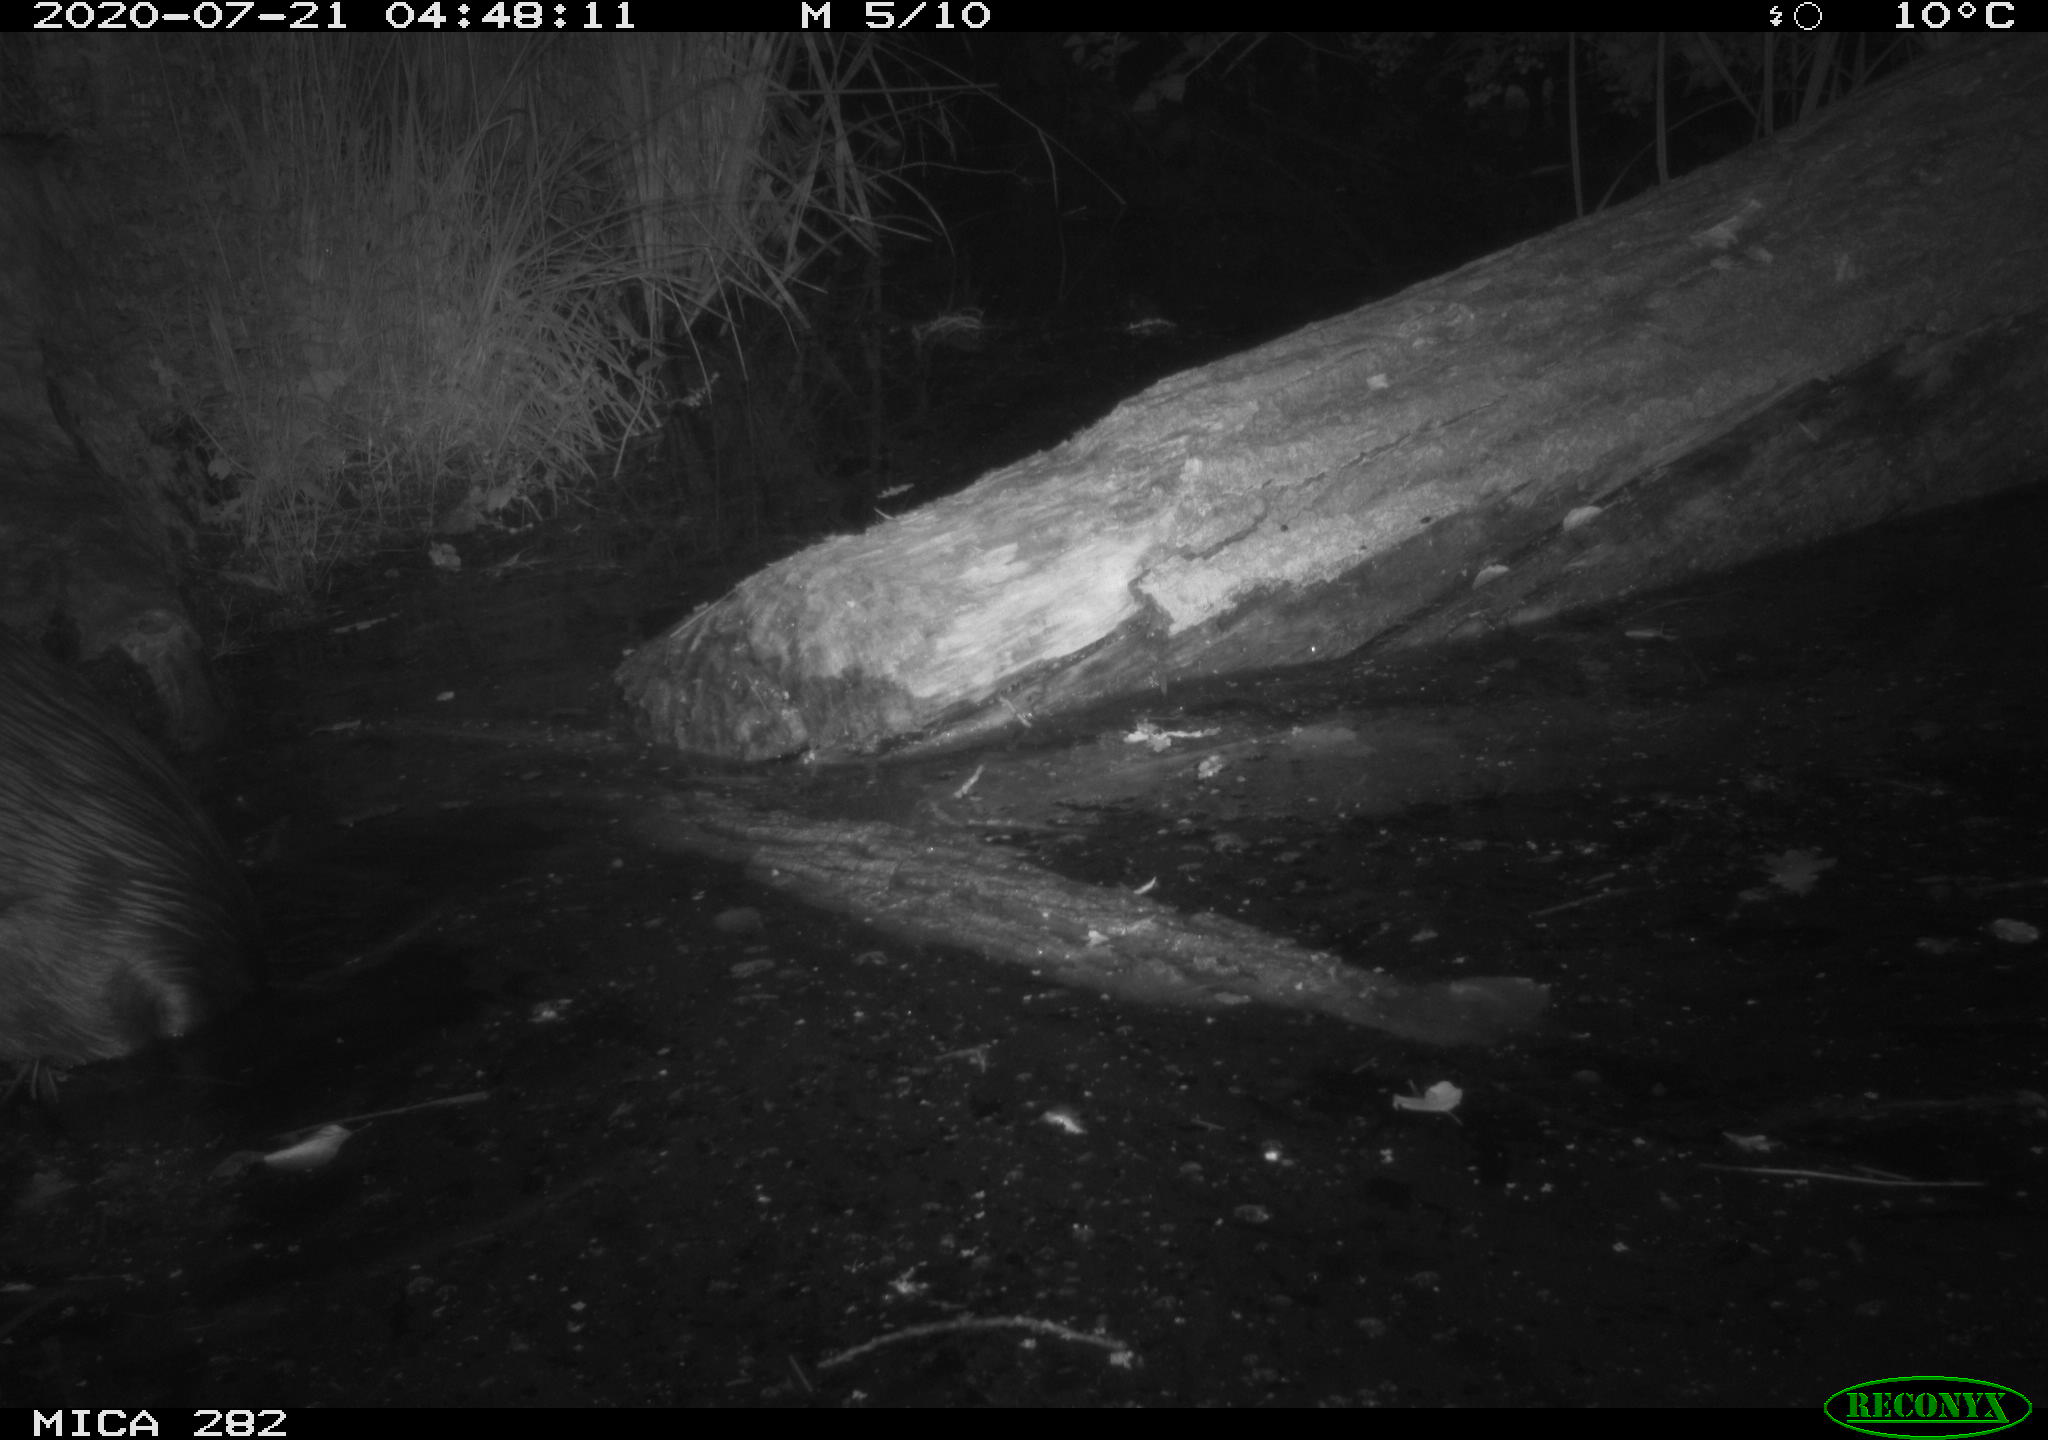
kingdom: Animalia
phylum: Chordata
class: Mammalia
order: Rodentia
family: Castoridae
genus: Castor
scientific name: Castor fiber
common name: Eurasian beaver
